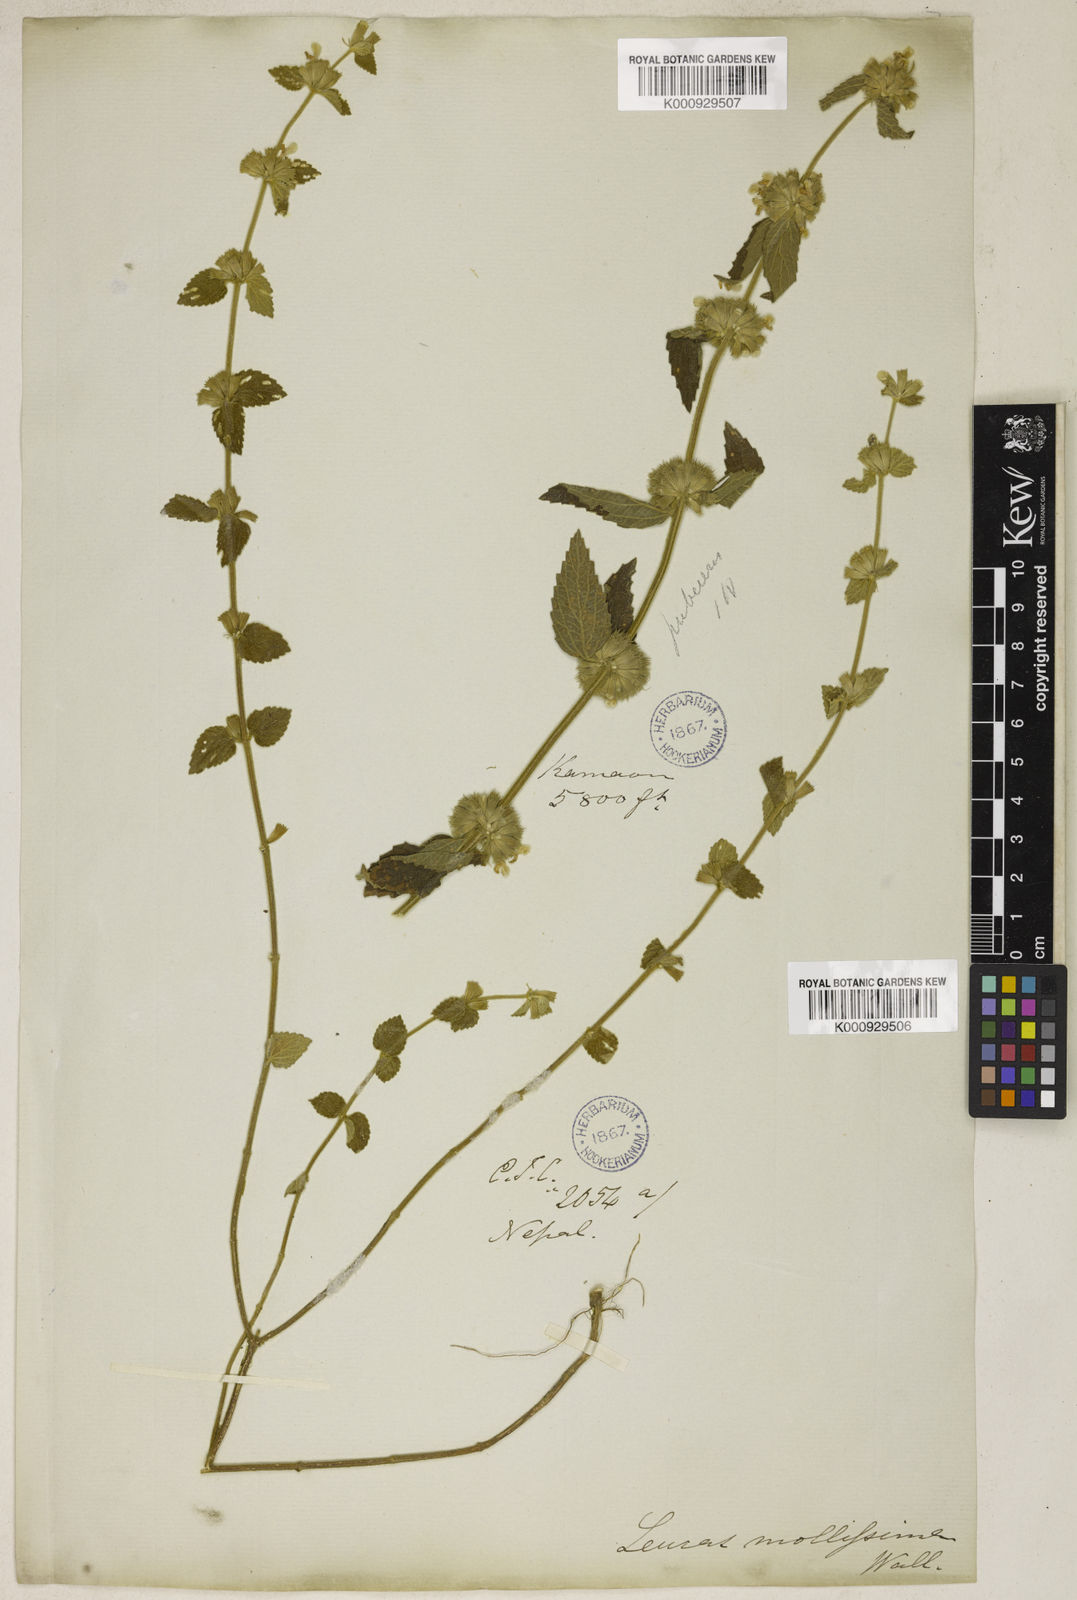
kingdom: Plantae
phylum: Tracheophyta
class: Magnoliopsida
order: Lamiales
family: Lamiaceae
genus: Leucas
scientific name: Leucas
